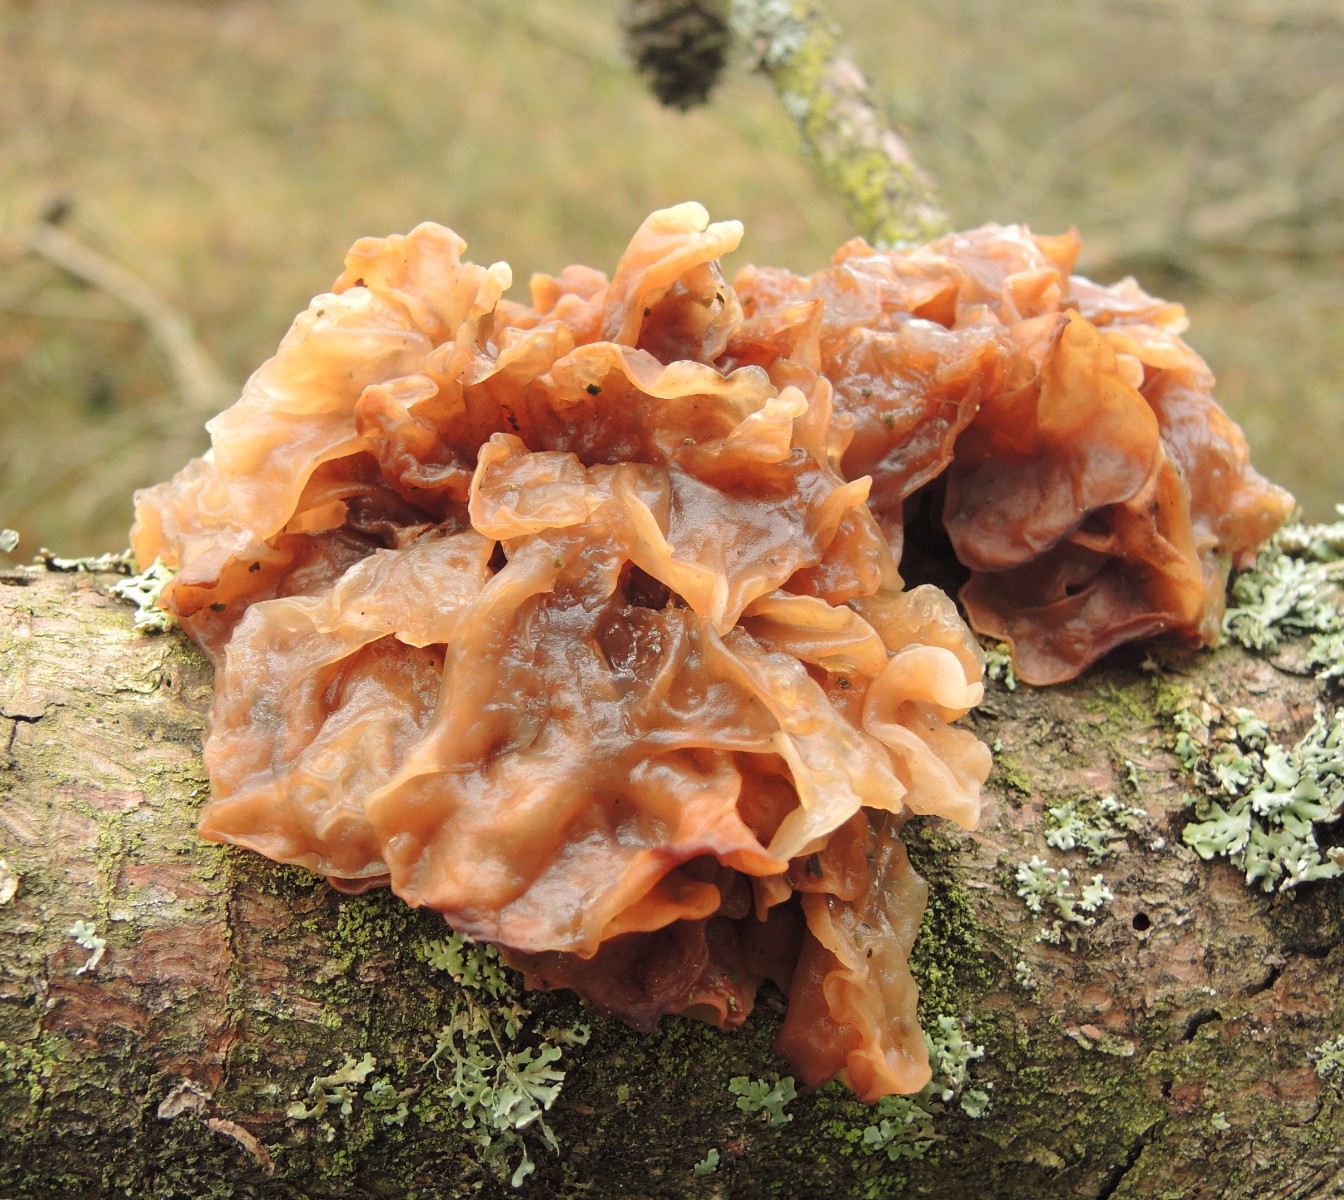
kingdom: Fungi
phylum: Basidiomycota
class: Tremellomycetes
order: Tremellales
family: Tremellaceae
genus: Phaeotremella
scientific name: Phaeotremella foliacea
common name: brun bævresvamp
